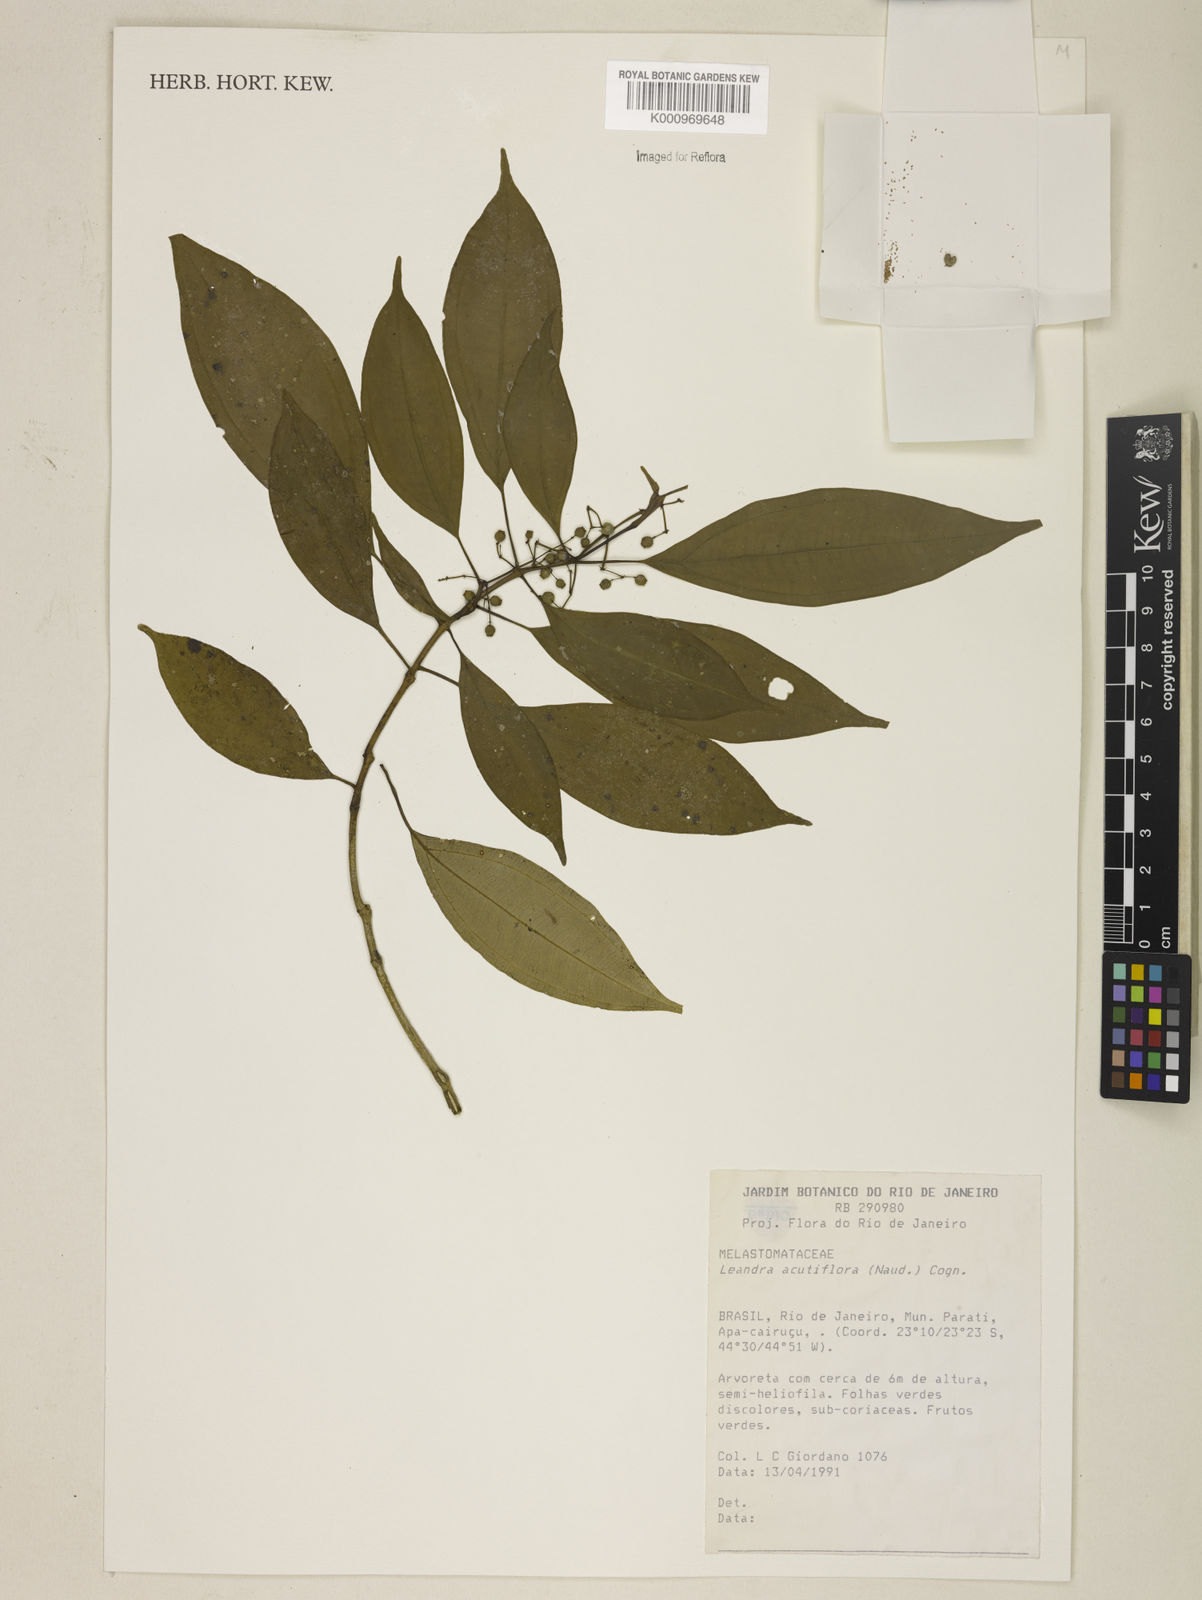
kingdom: Plantae
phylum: Tracheophyta
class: Magnoliopsida
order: Myrtales
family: Melastomataceae
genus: Miconia
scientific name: Miconia acutiflora
